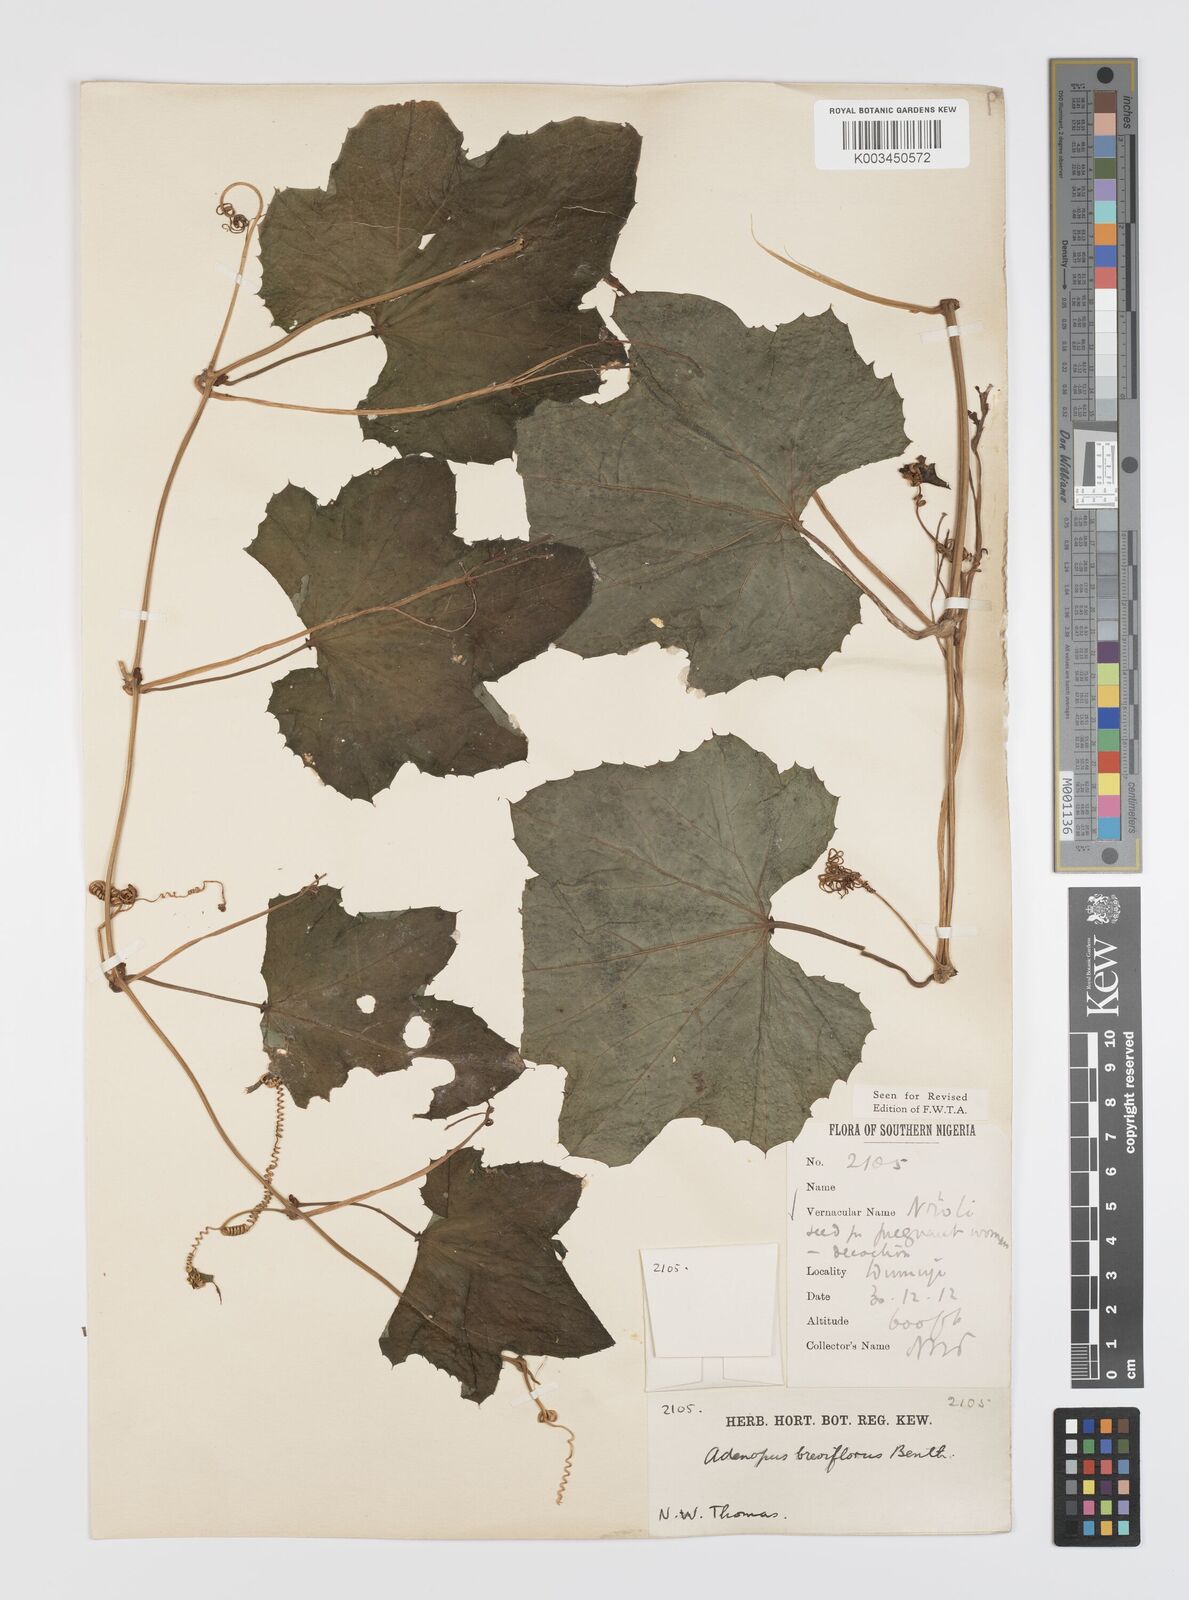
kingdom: Plantae
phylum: Tracheophyta
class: Magnoliopsida
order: Cucurbitales
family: Cucurbitaceae
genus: Lagenaria
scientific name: Lagenaria breviflora
